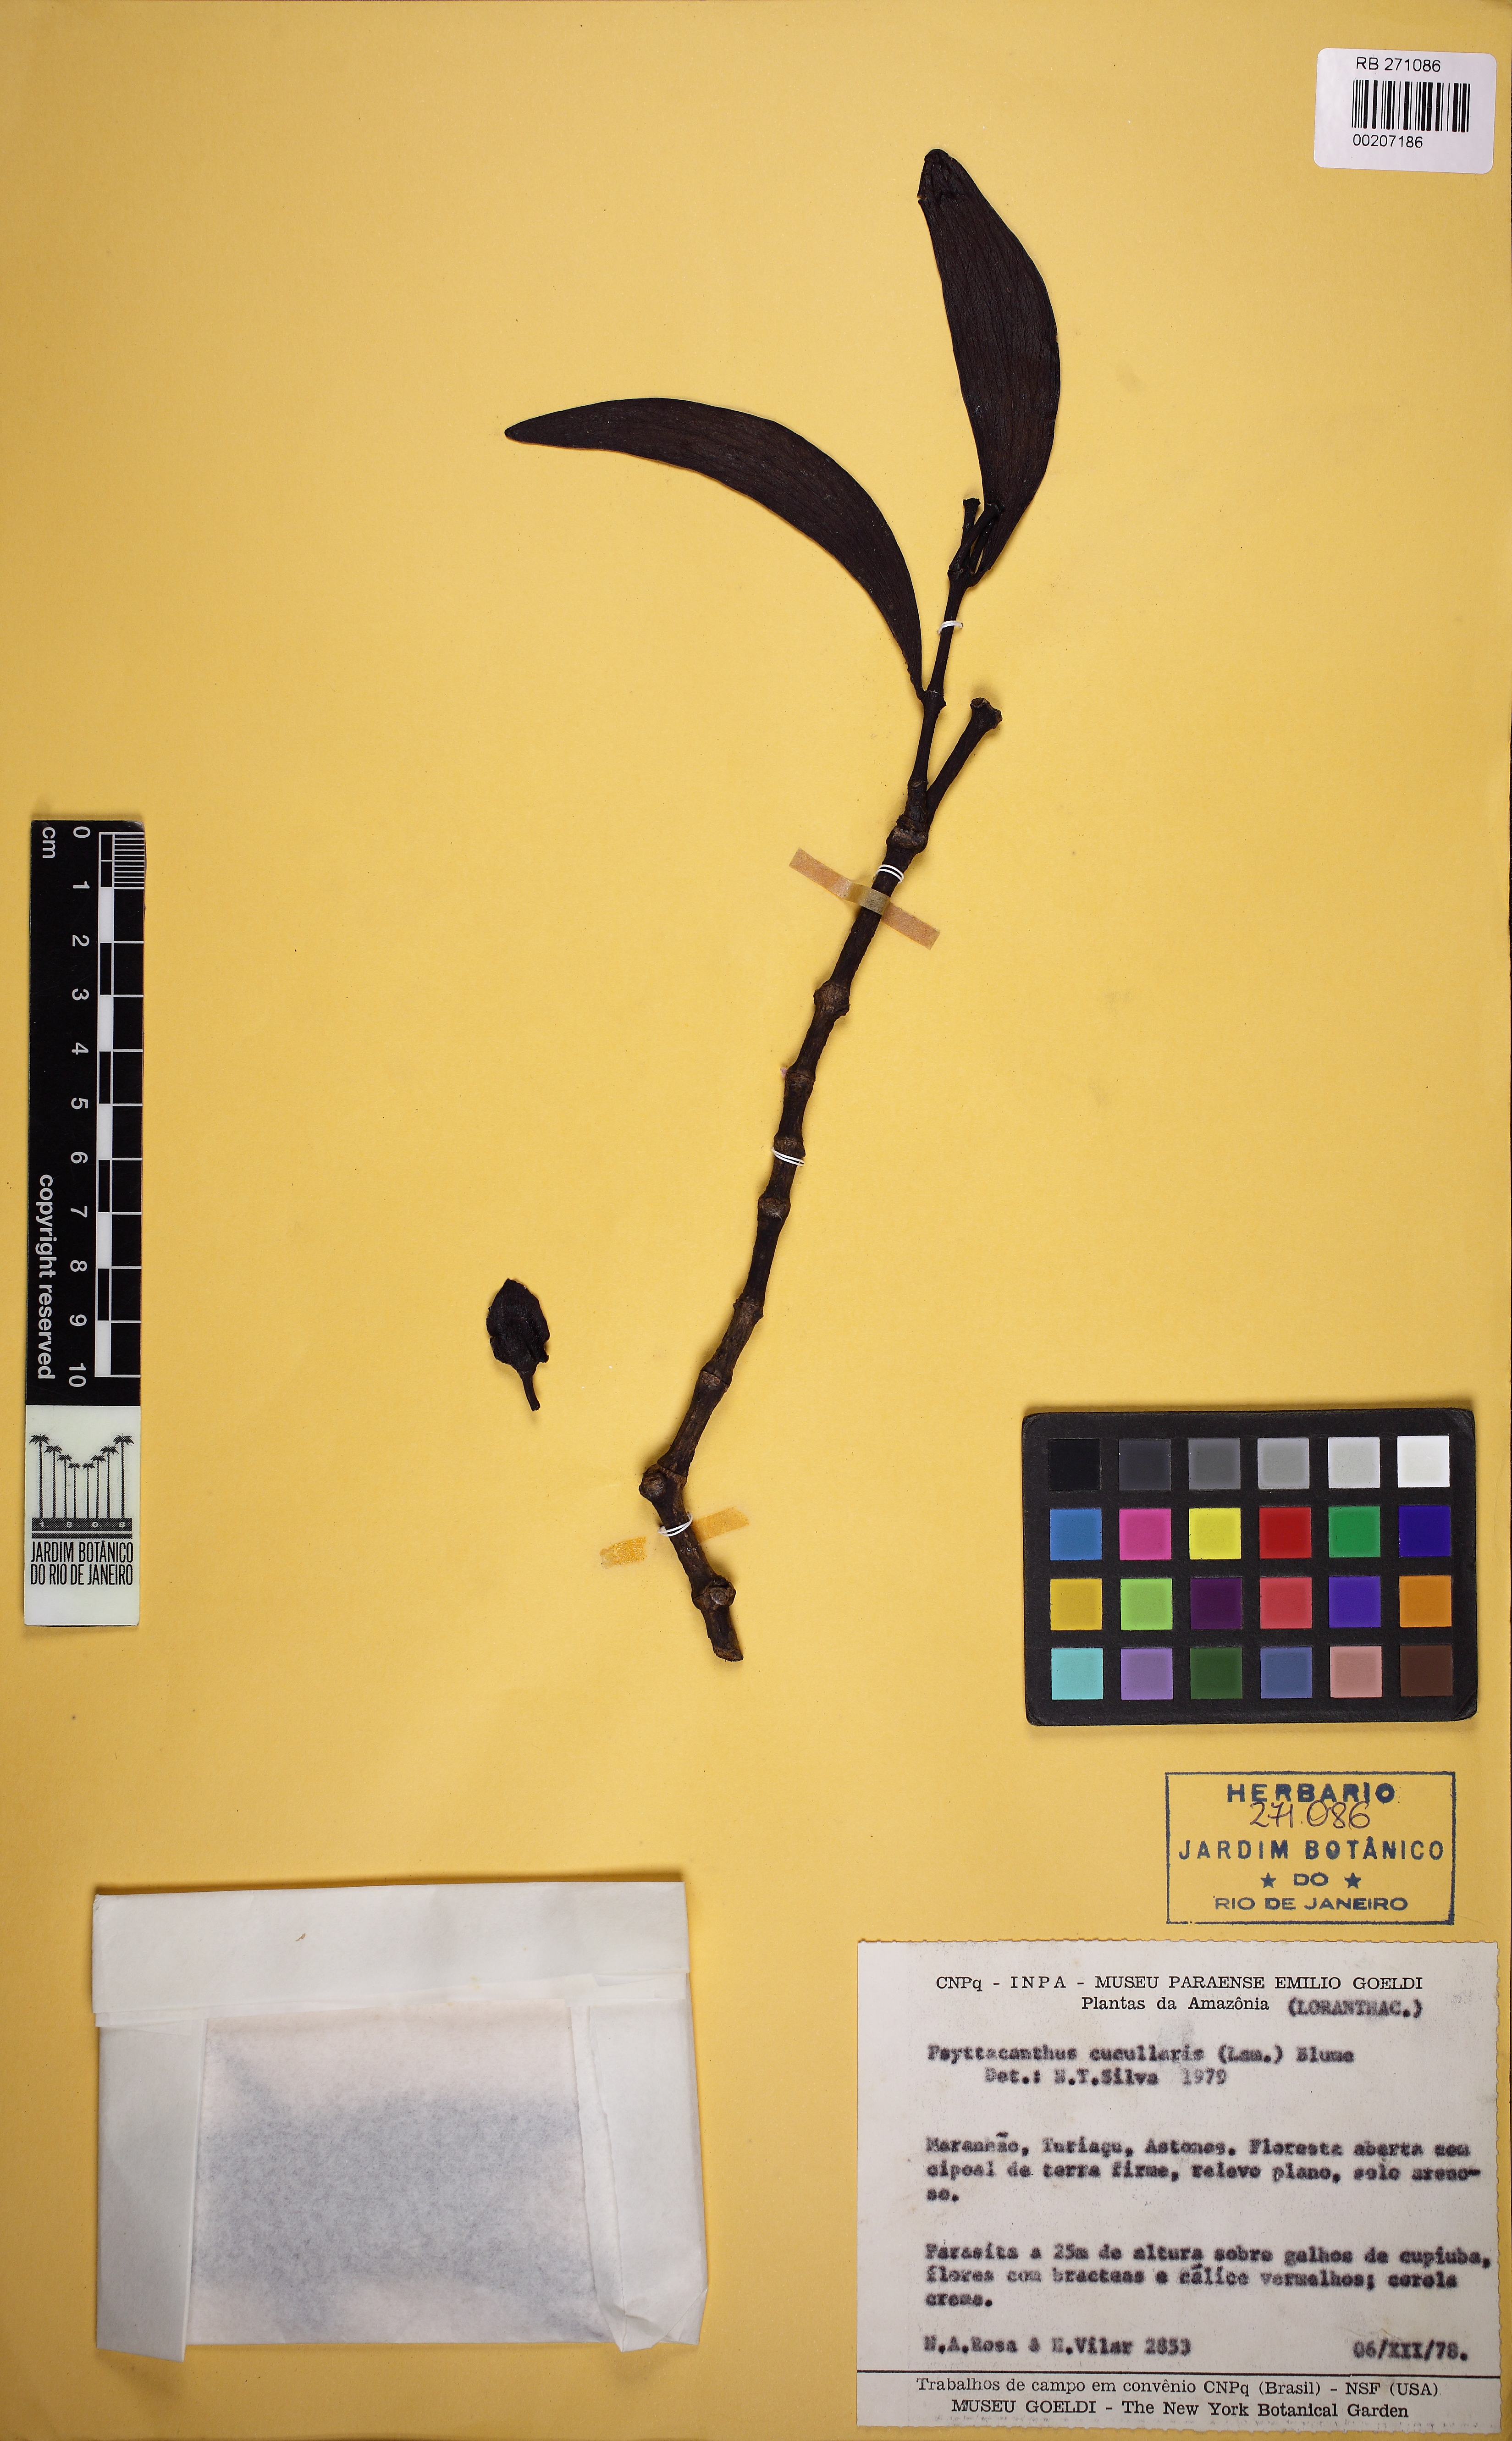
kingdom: Plantae
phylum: Tracheophyta
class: Magnoliopsida
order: Santalales
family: Loranthaceae
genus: Psittacanthus
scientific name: Psittacanthus cucullaris
